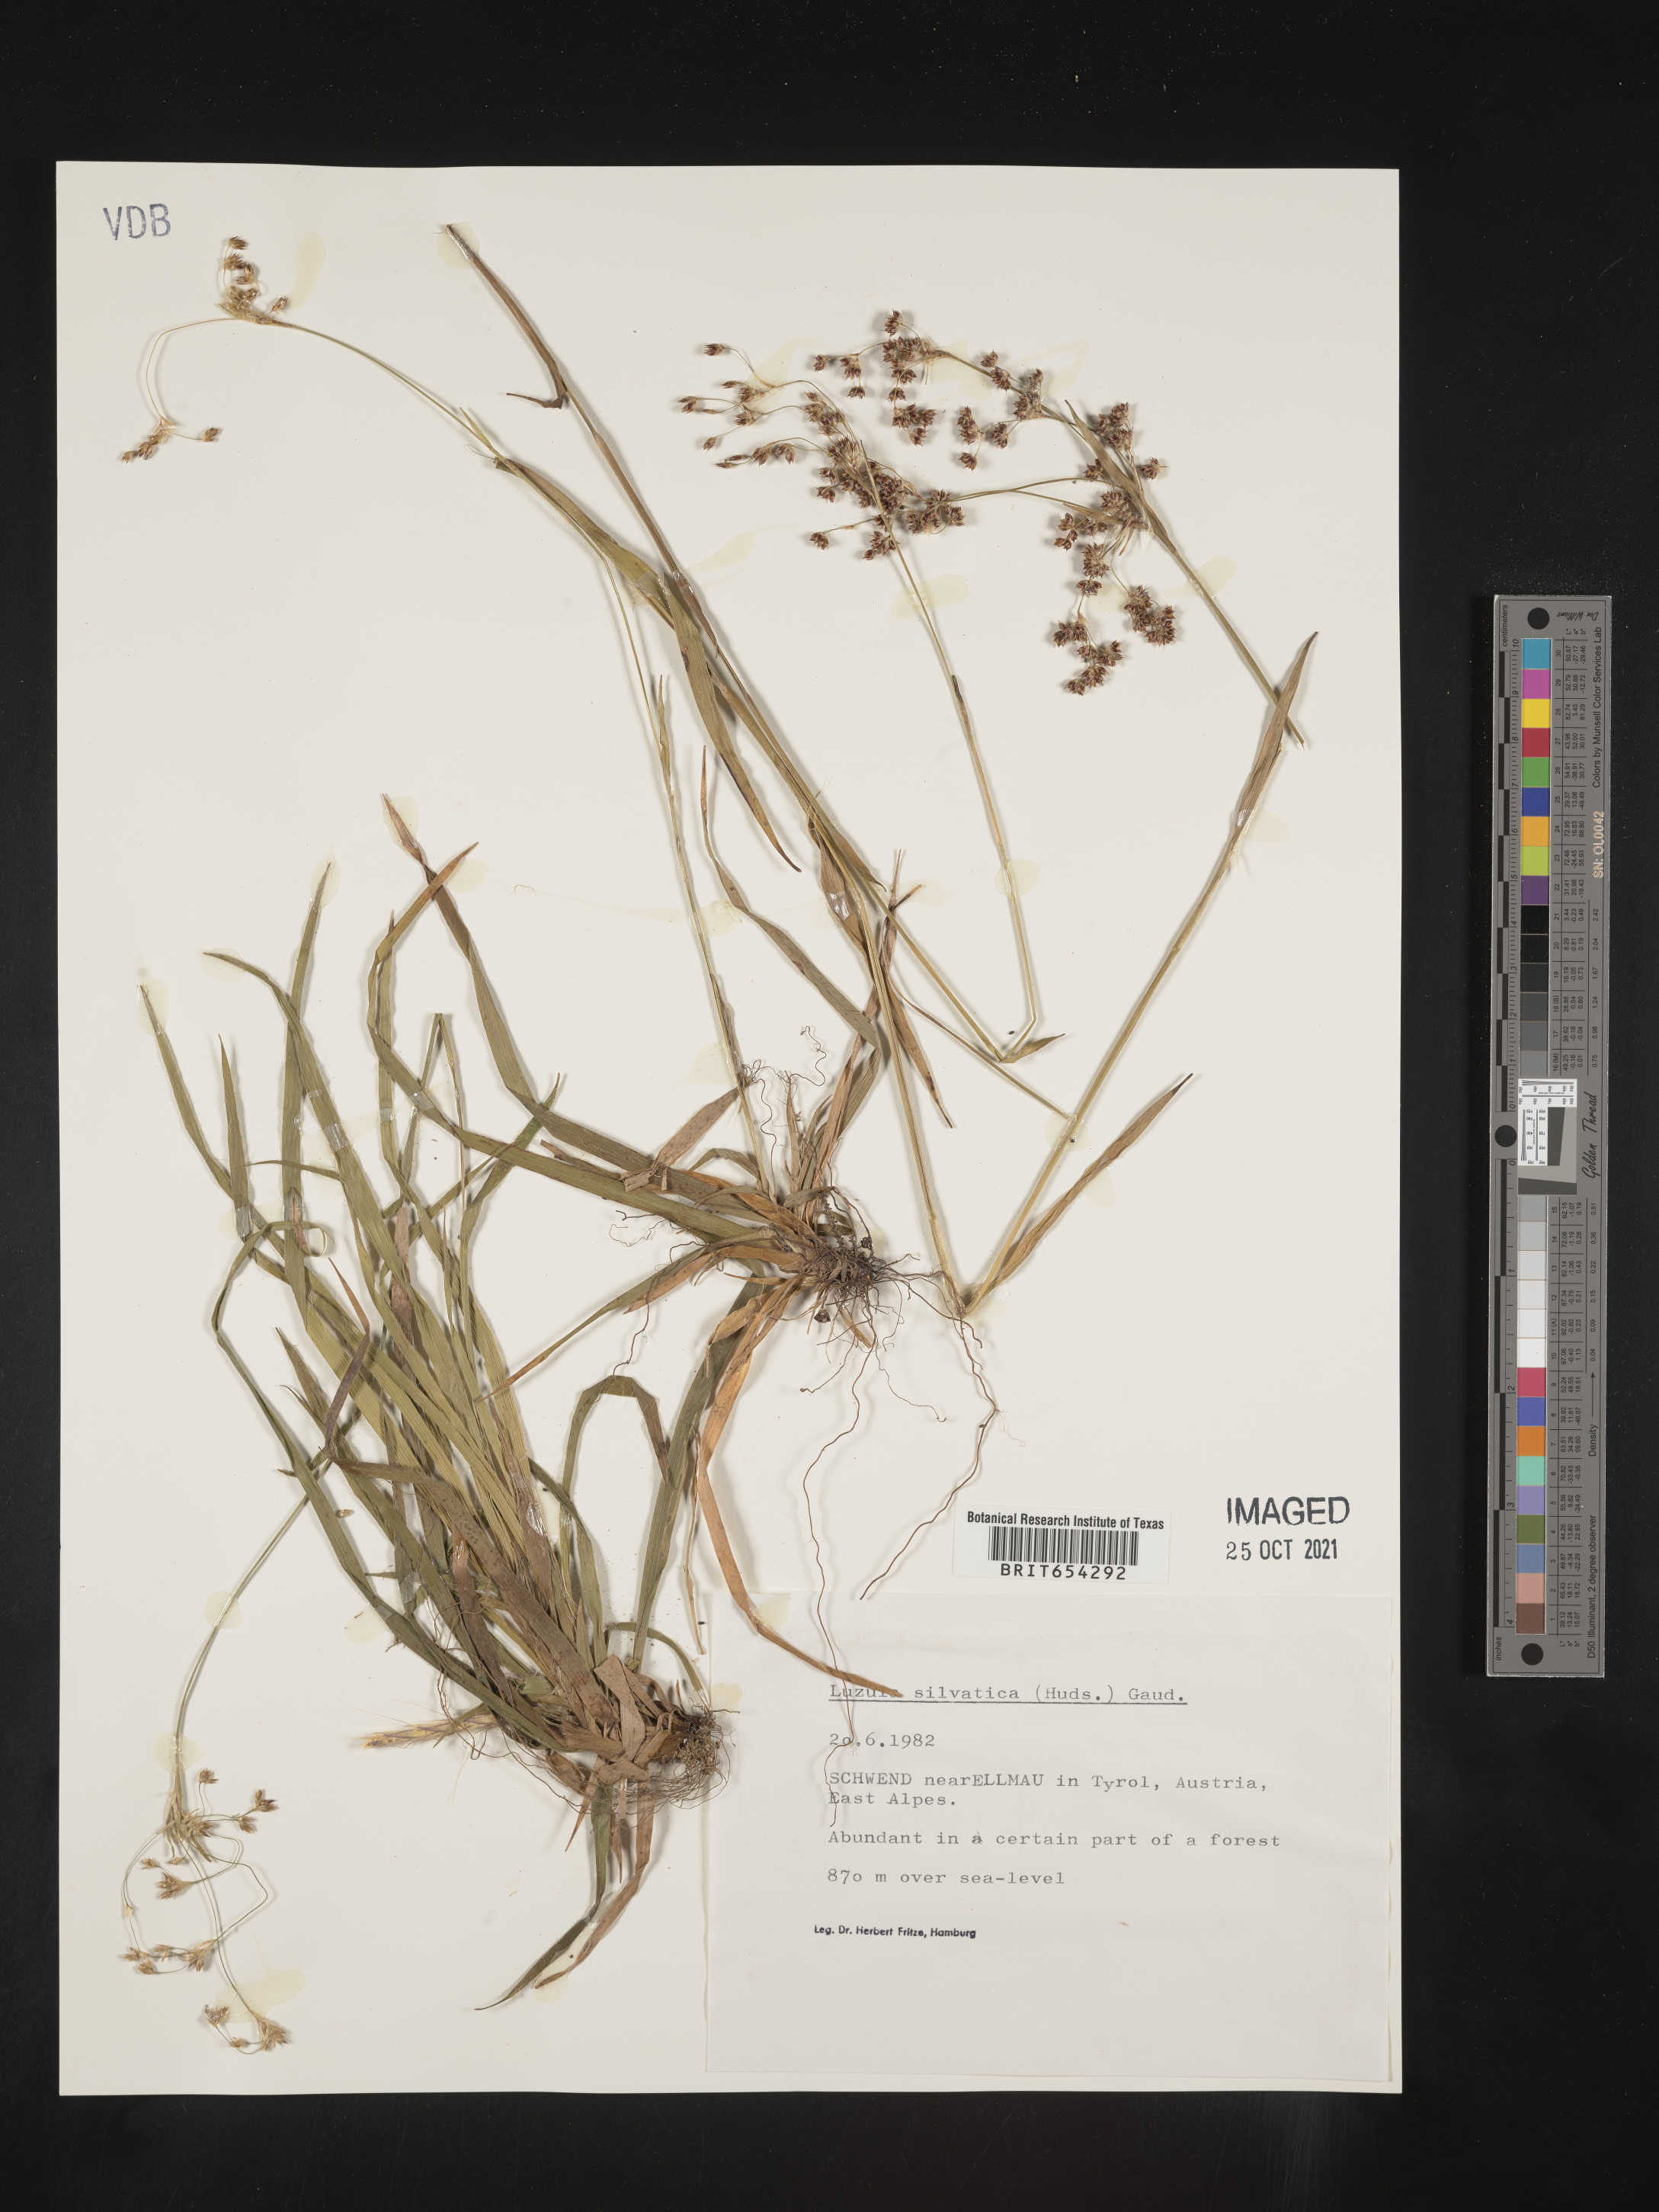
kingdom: Plantae
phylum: Tracheophyta
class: Liliopsida
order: Poales
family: Juncaceae
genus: Luzula
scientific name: Luzula
